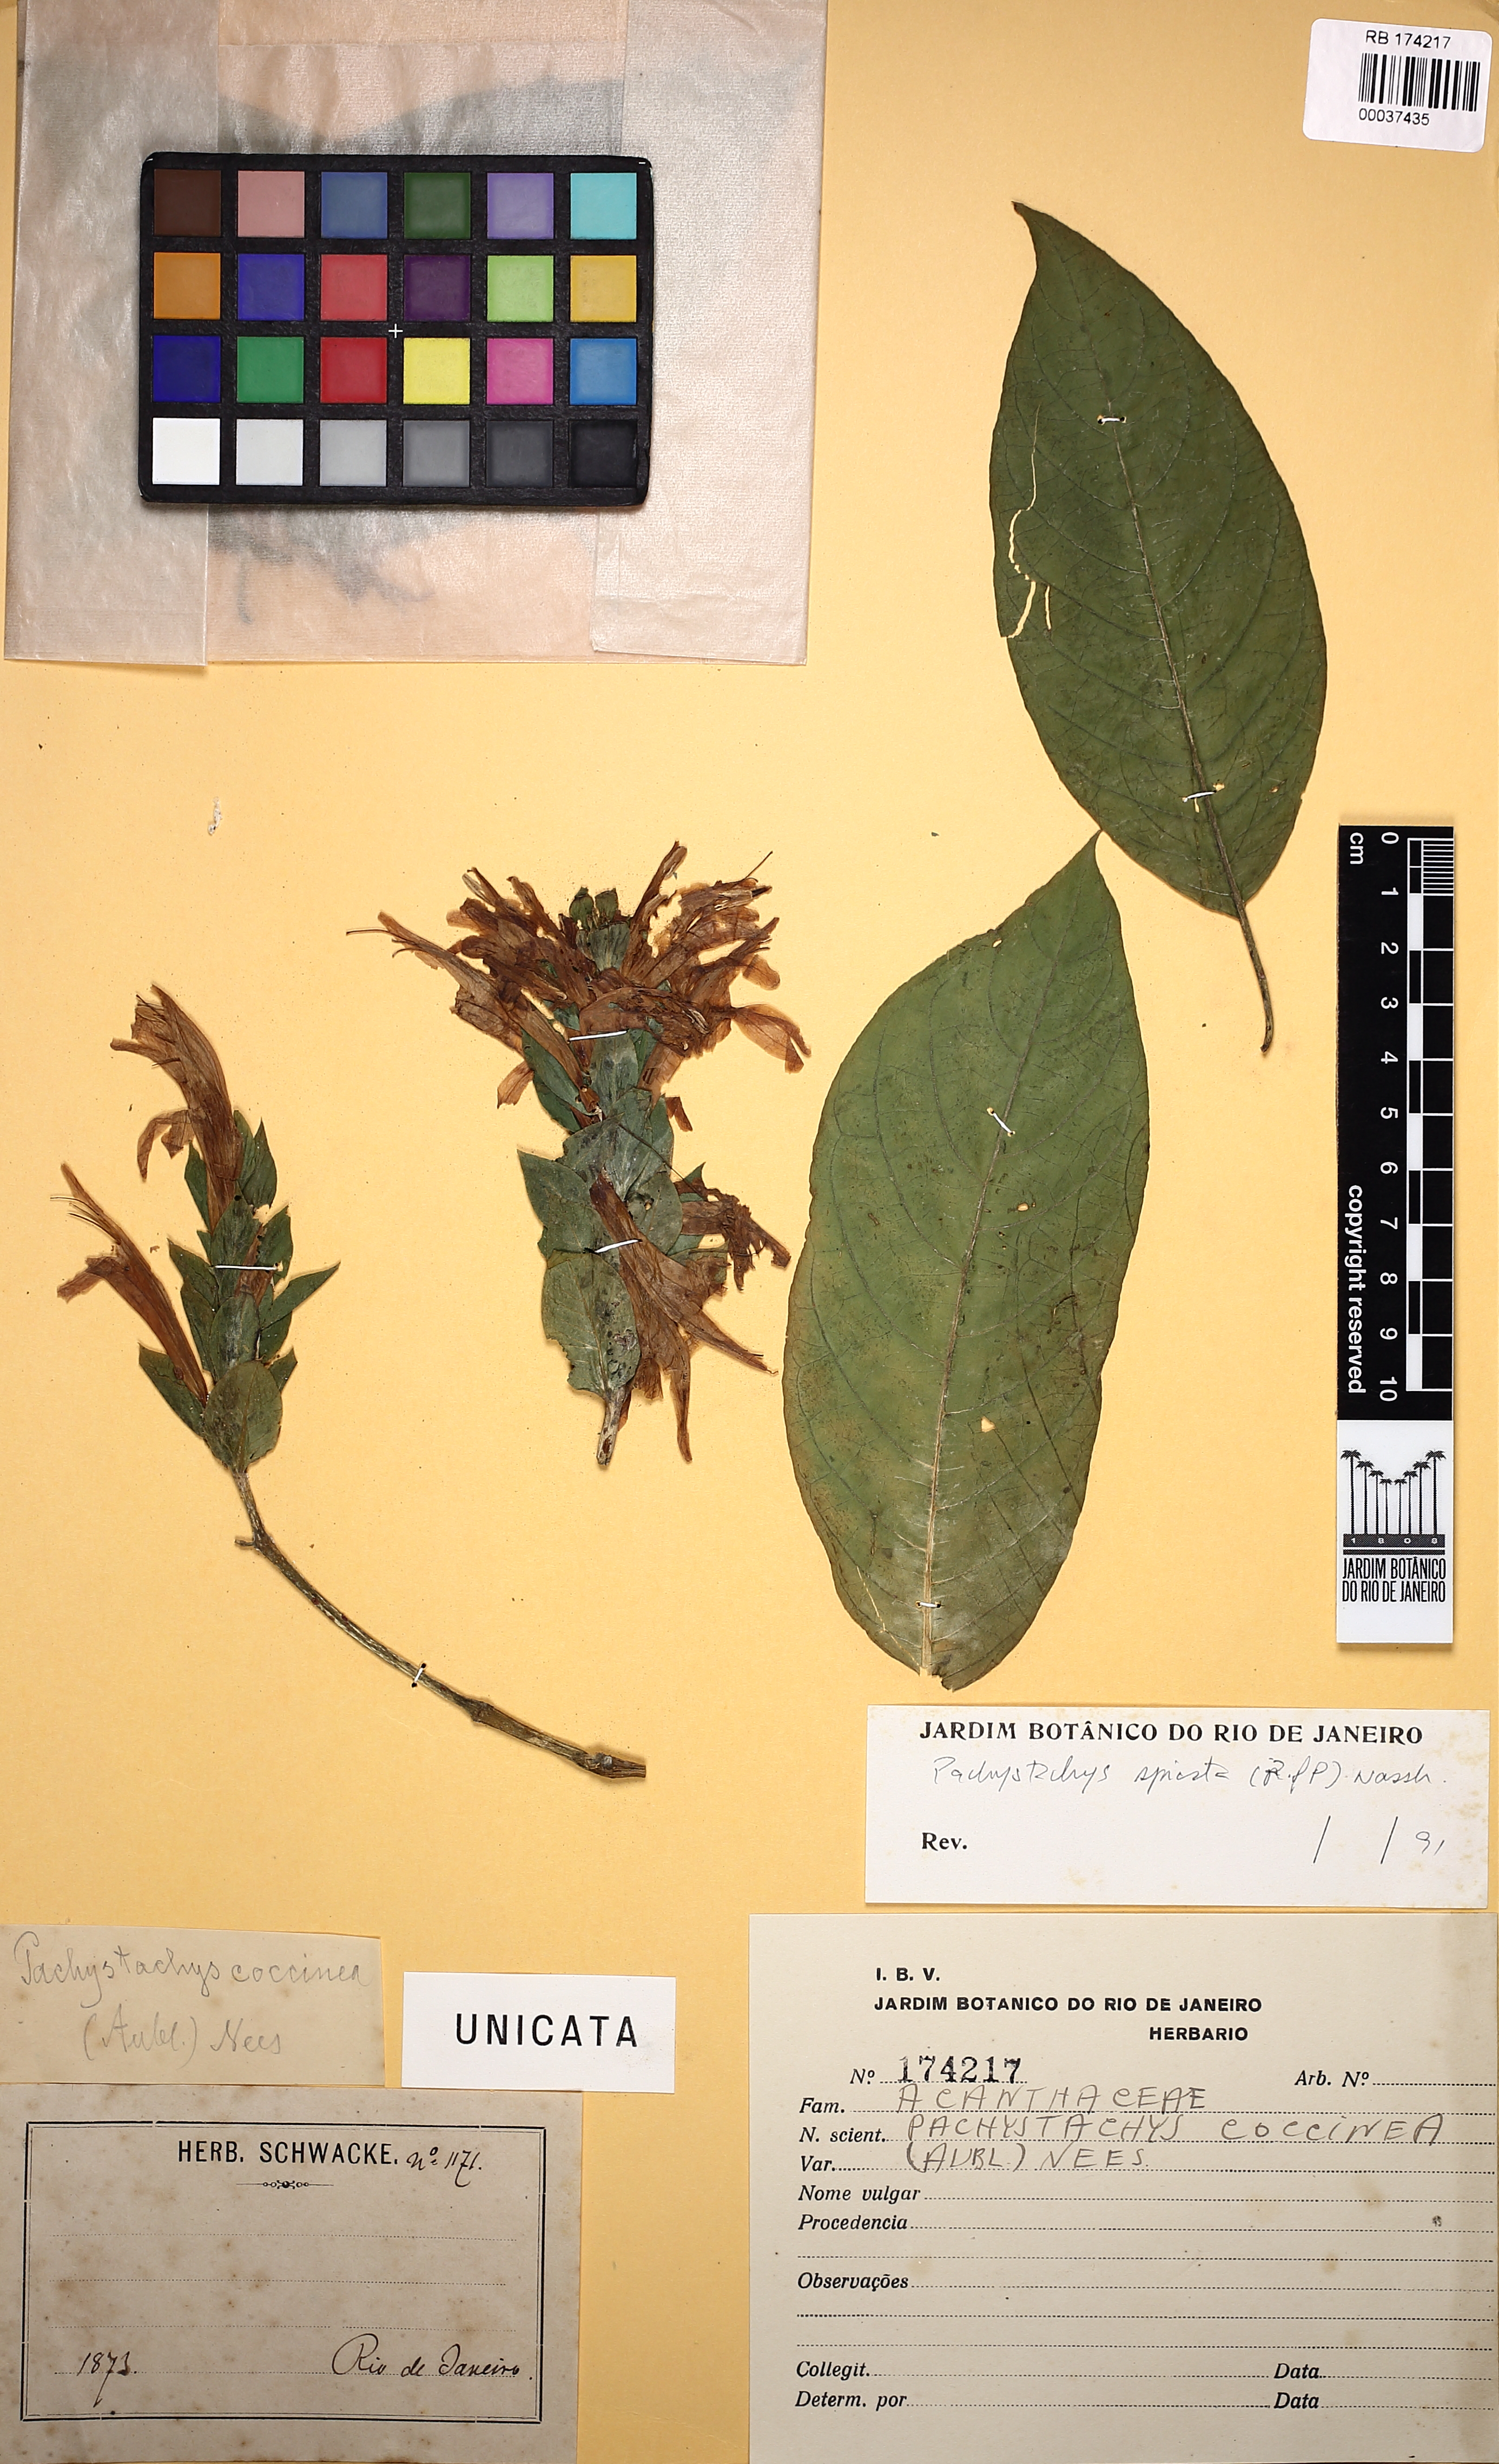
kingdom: Plantae
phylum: Tracheophyta
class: Magnoliopsida
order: Lamiales
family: Acanthaceae
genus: Pachystachys
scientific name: Pachystachys spicata
